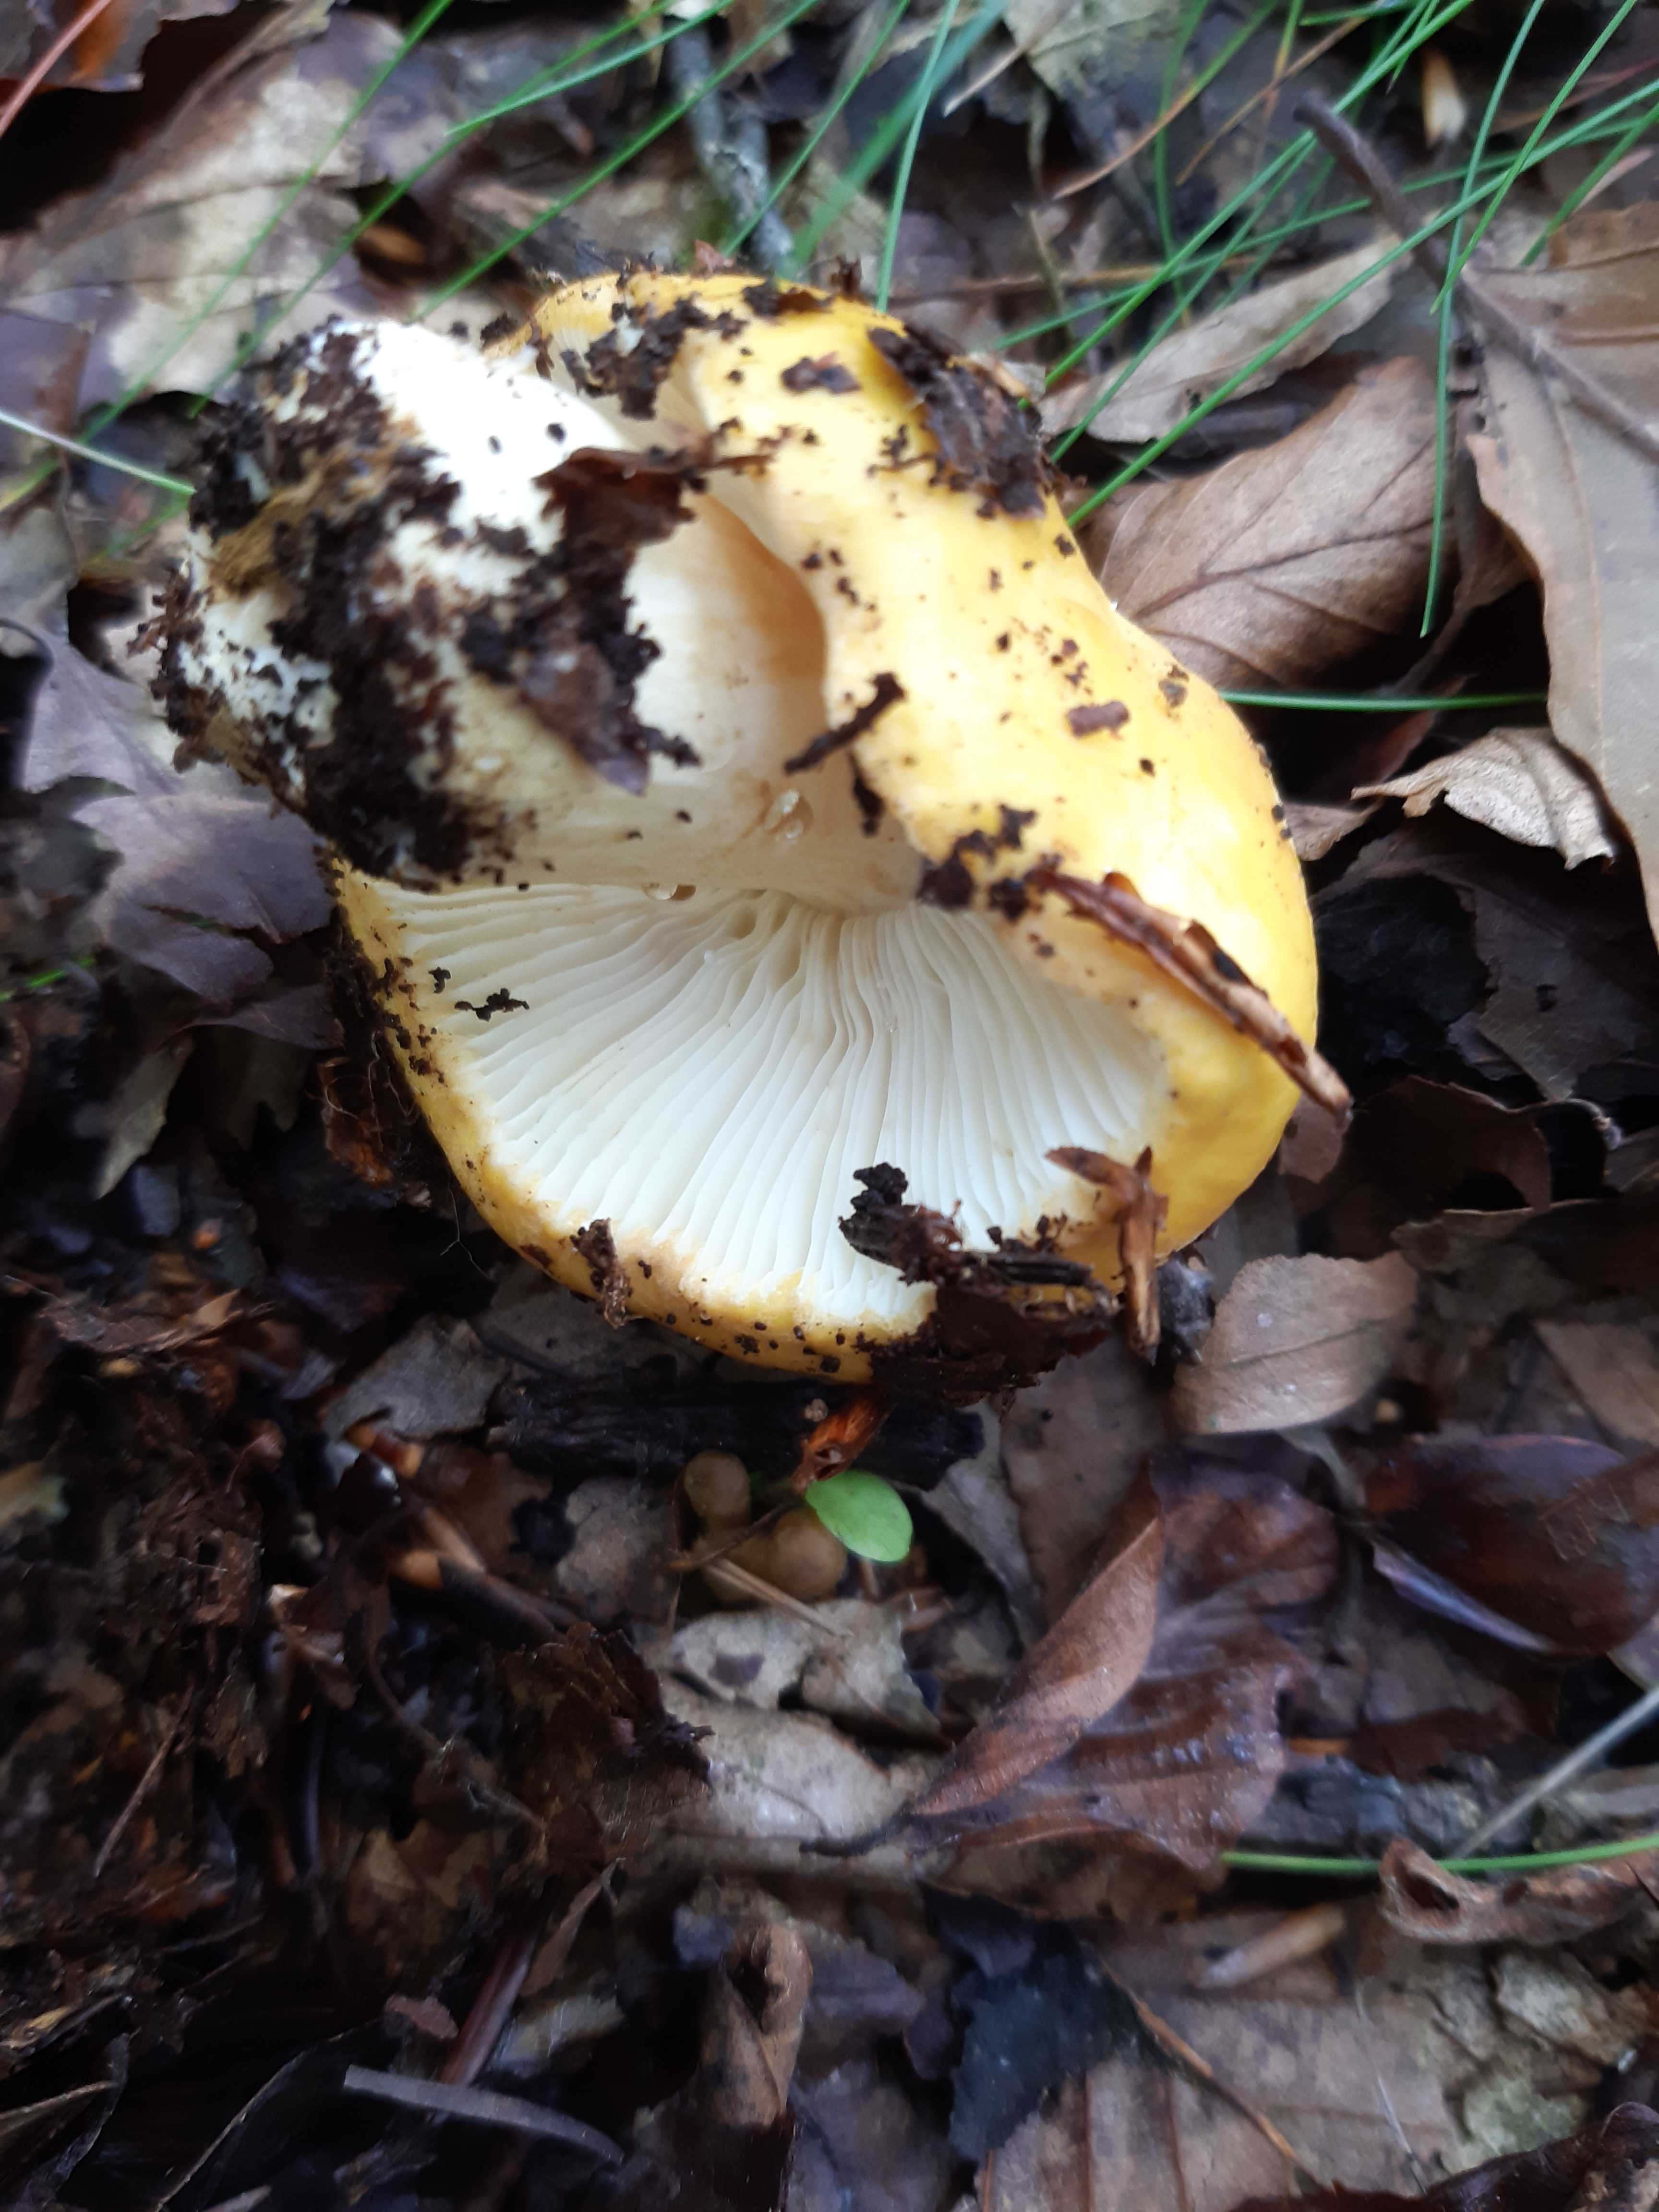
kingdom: Fungi
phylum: Basidiomycota
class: Agaricomycetes
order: Russulales
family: Russulaceae
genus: Russula
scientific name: Russula ochroleuca
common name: okkergul skørhat
